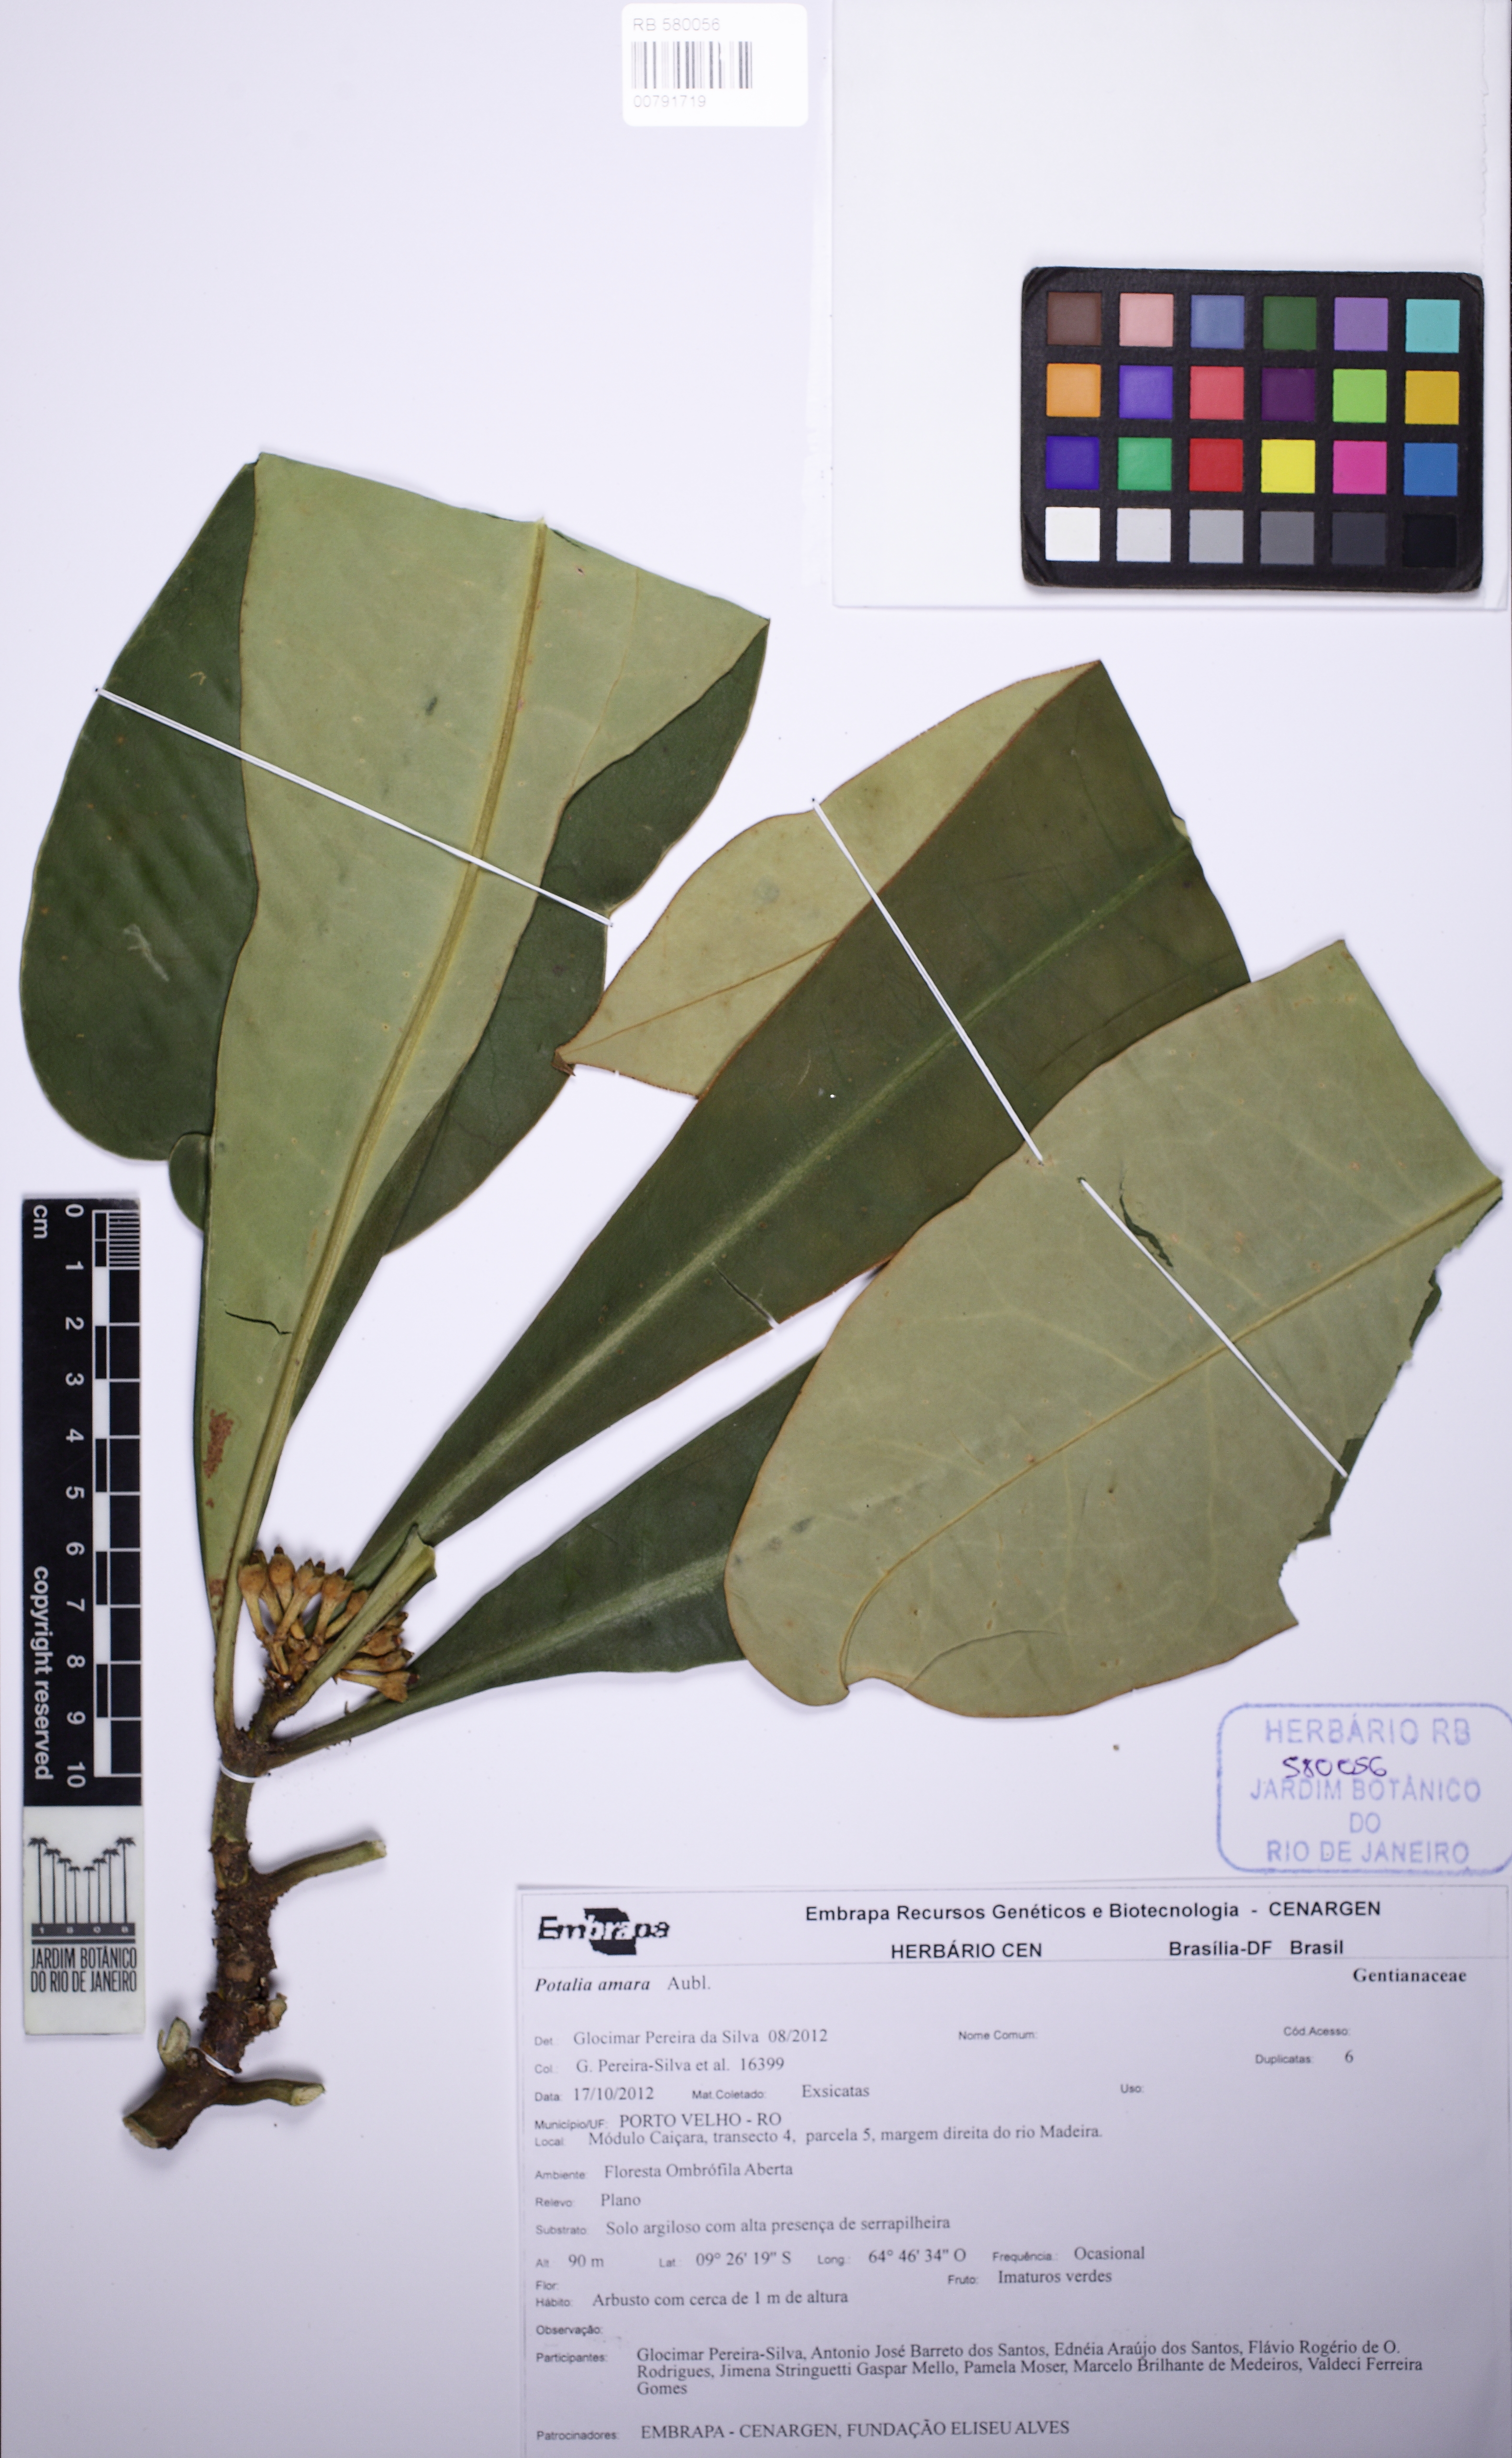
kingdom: Plantae
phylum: Tracheophyta
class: Magnoliopsida
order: Gentianales
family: Gentianaceae
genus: Potalia
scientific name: Potalia resinifera
